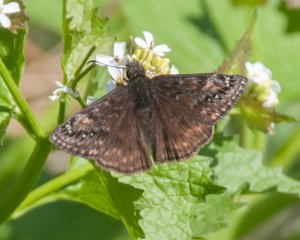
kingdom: Animalia
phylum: Arthropoda
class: Insecta
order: Lepidoptera
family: Hesperiidae
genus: Gesta
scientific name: Gesta
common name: Wild Indigo Duskywing
